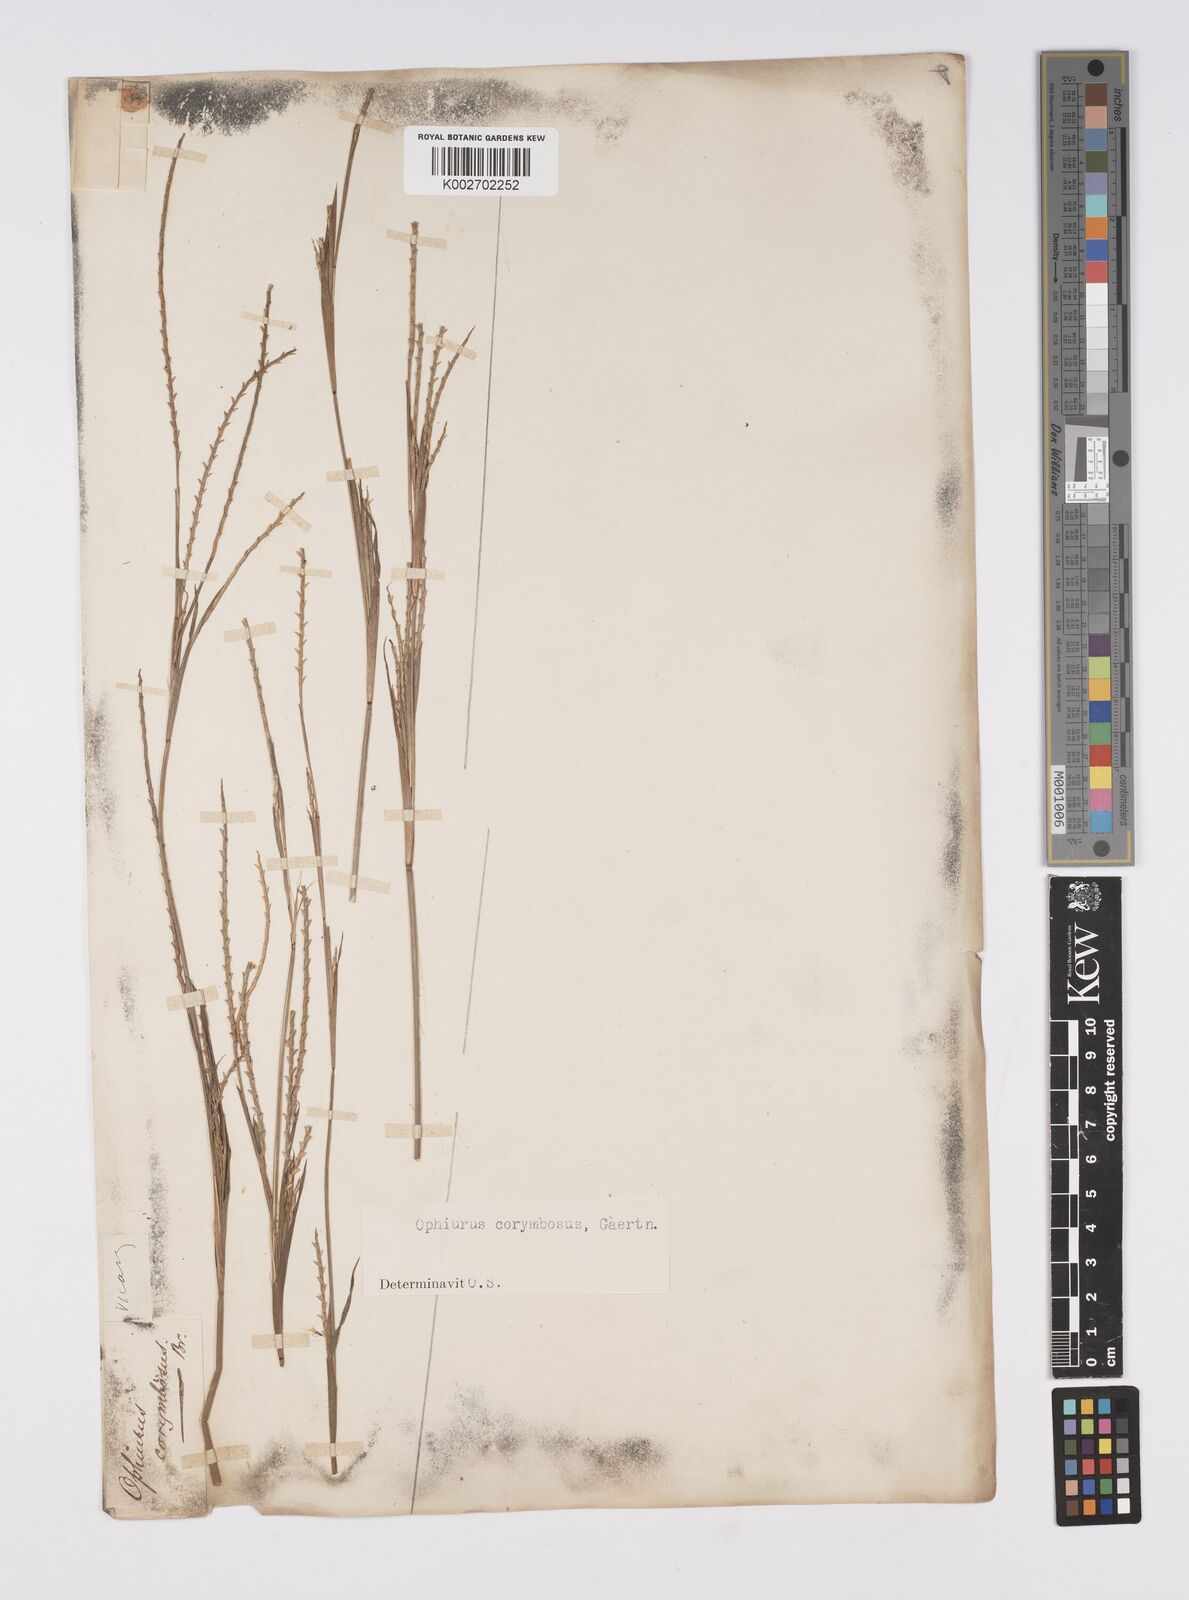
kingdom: Plantae
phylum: Tracheophyta
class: Liliopsida
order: Poales
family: Poaceae
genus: Ophiuros
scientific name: Ophiuros exaltatus
